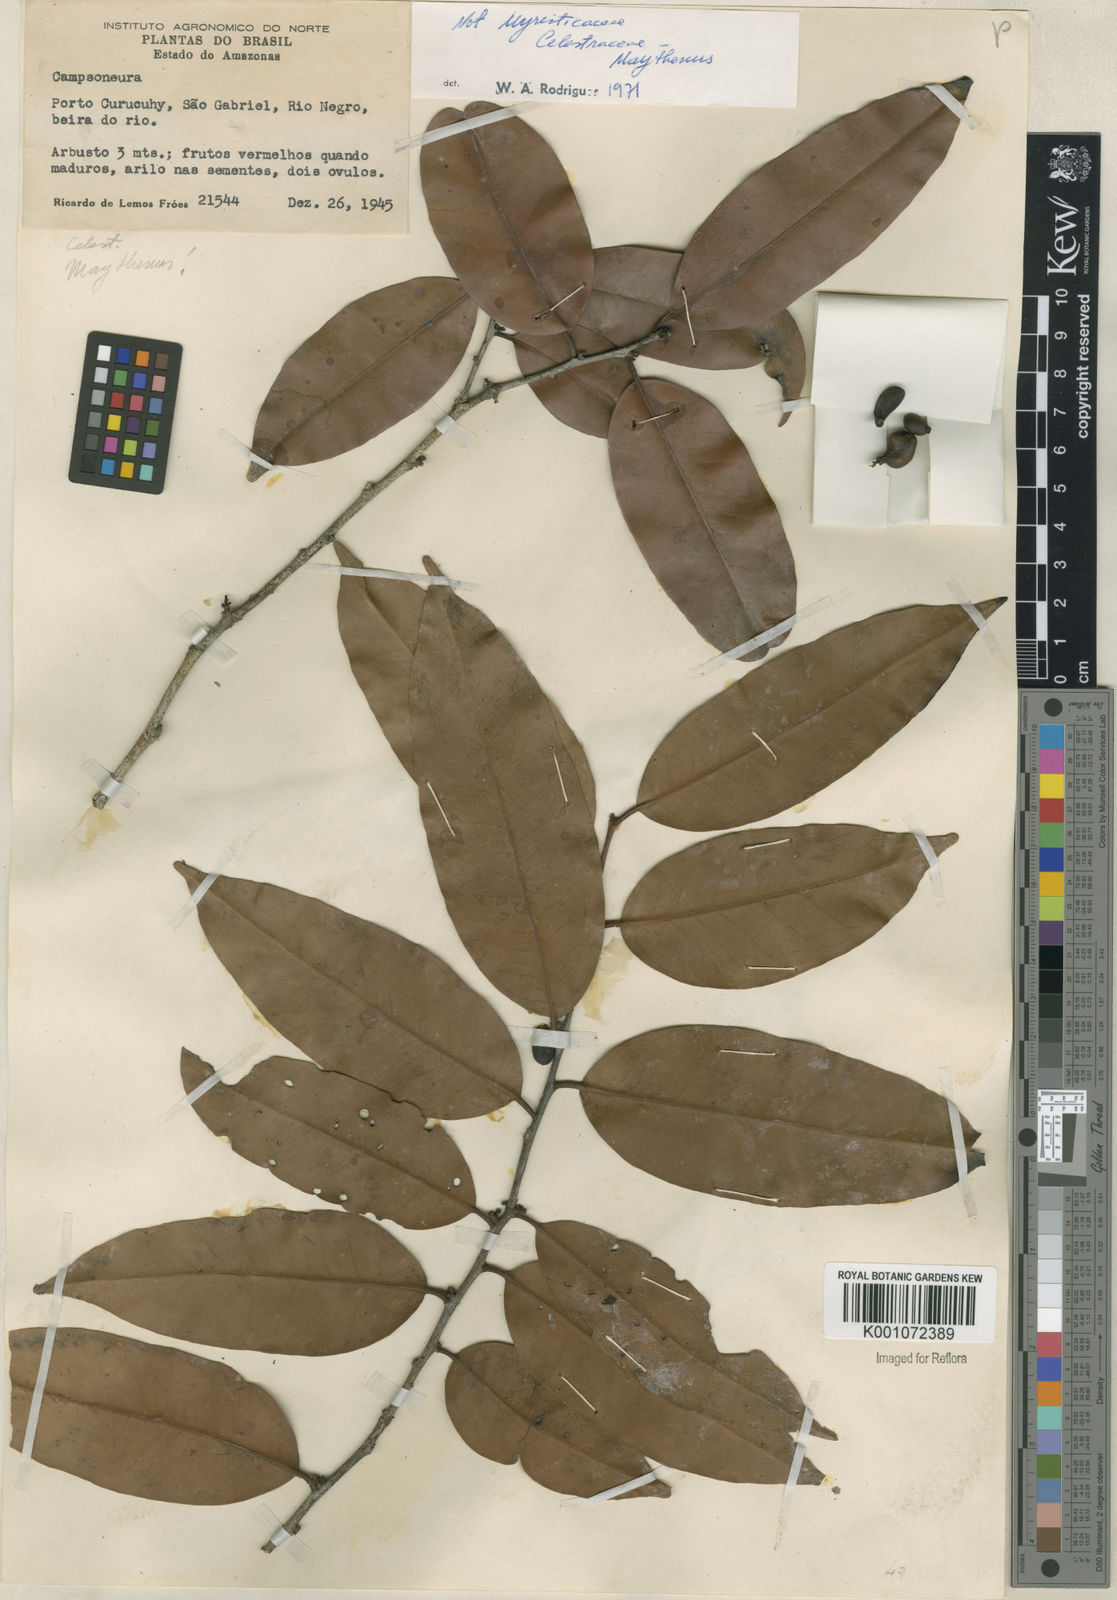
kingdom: Plantae
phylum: Tracheophyta
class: Magnoliopsida
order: Celastrales
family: Celastraceae
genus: Maytenus
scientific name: Maytenus
